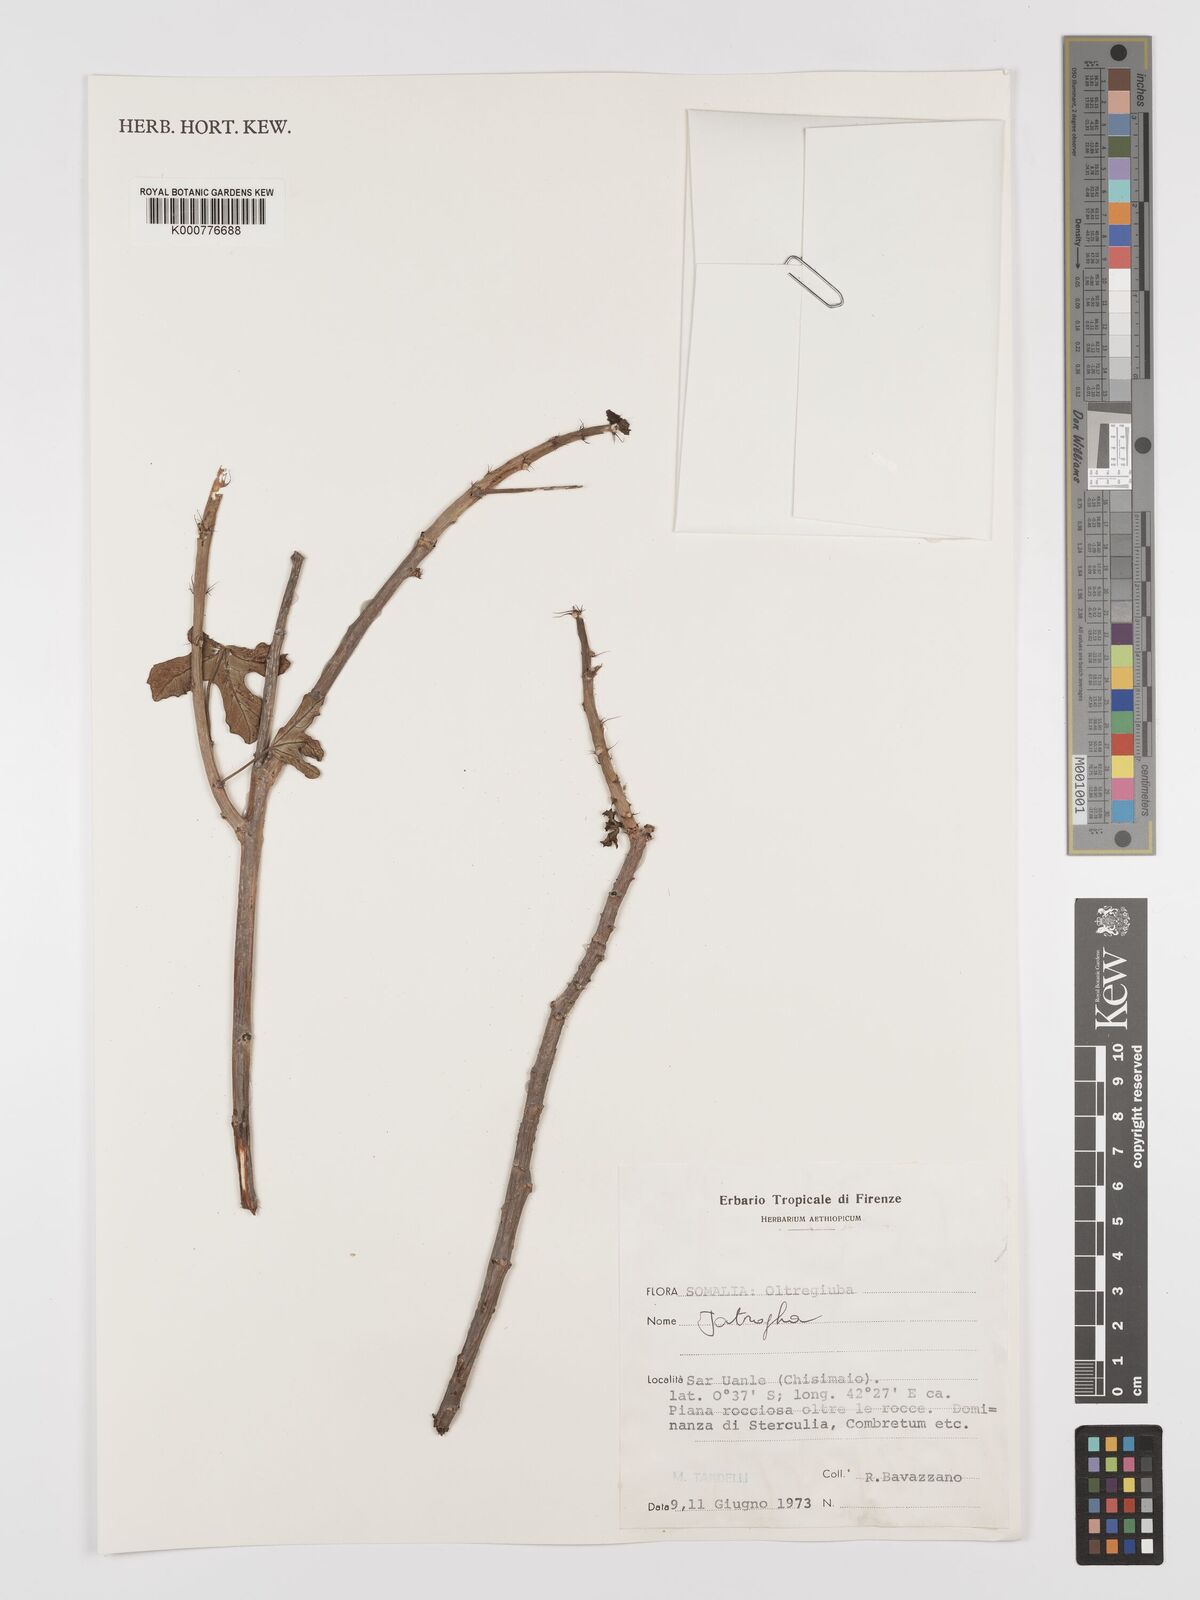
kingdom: Plantae
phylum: Tracheophyta
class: Magnoliopsida
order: Malpighiales
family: Euphorbiaceae
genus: Jatropha
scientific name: Jatropha rivae
